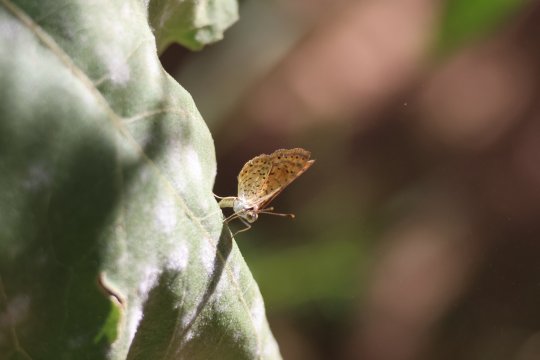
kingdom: Animalia
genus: Calephelis
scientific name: Calephelis nemesis
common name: Fatal Metalmark
